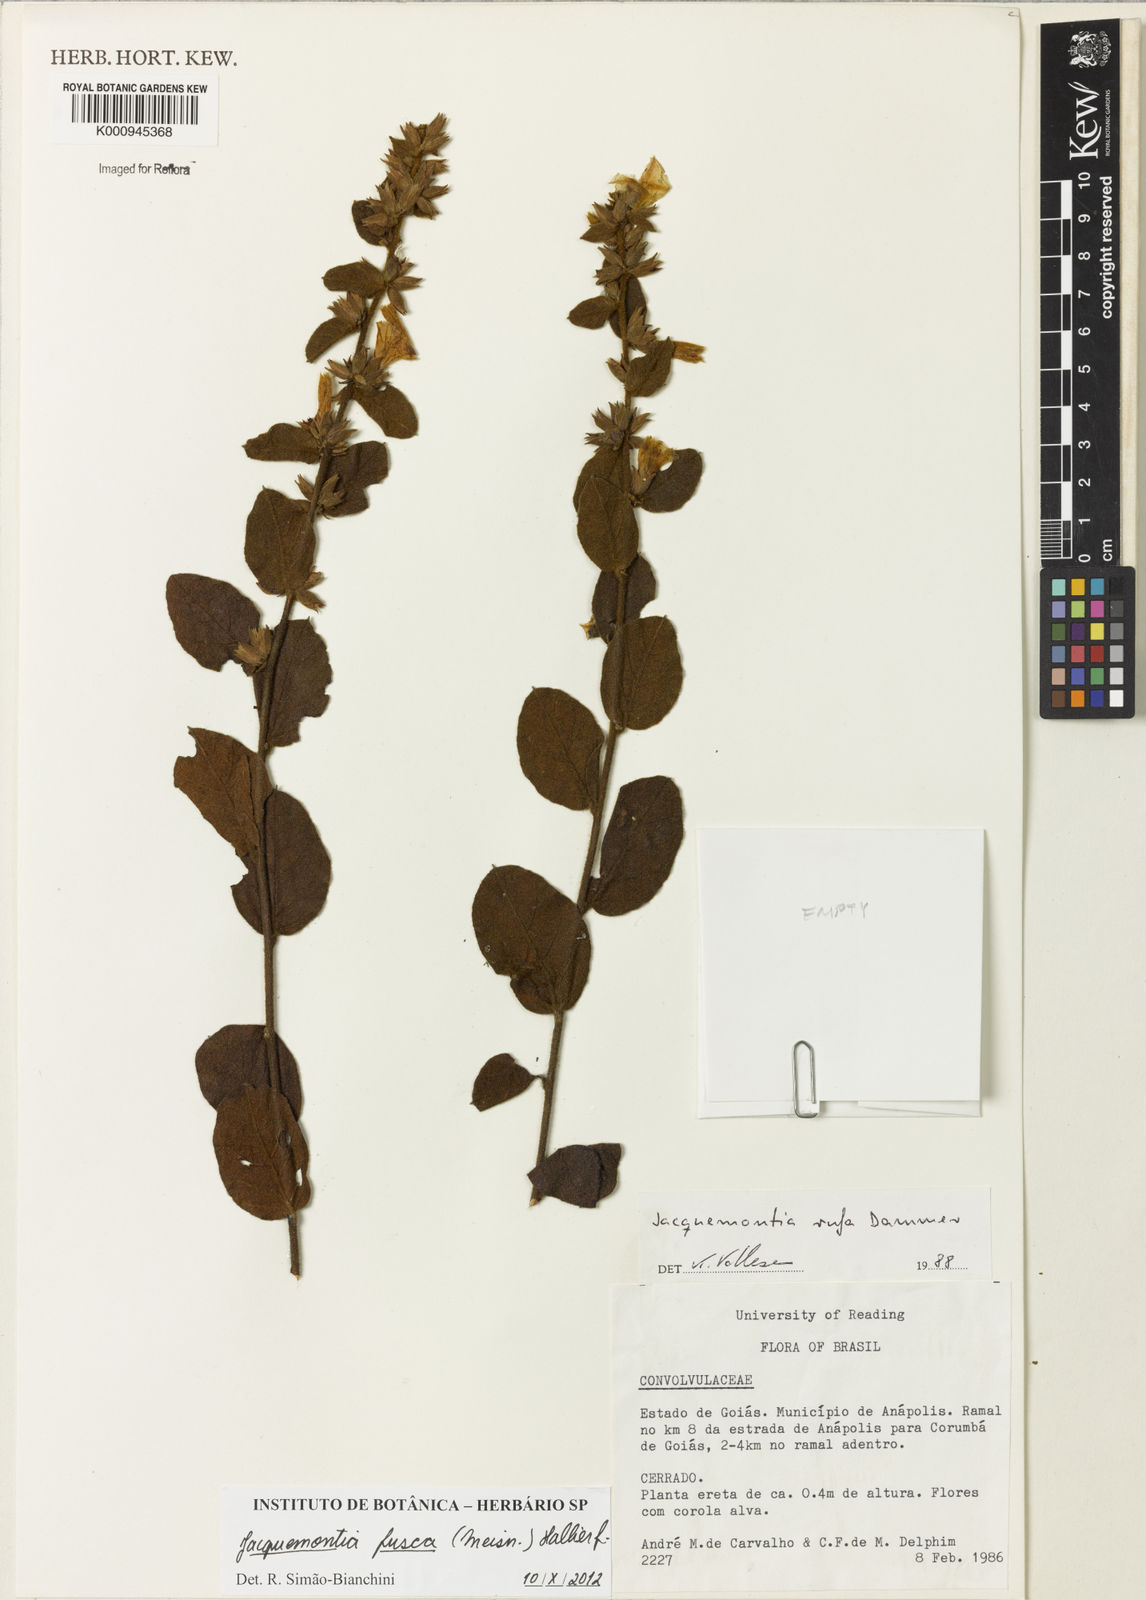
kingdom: Plantae
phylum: Tracheophyta
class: Magnoliopsida
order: Solanales
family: Convolvulaceae
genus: Jacquemontia
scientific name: Jacquemontia fusca
